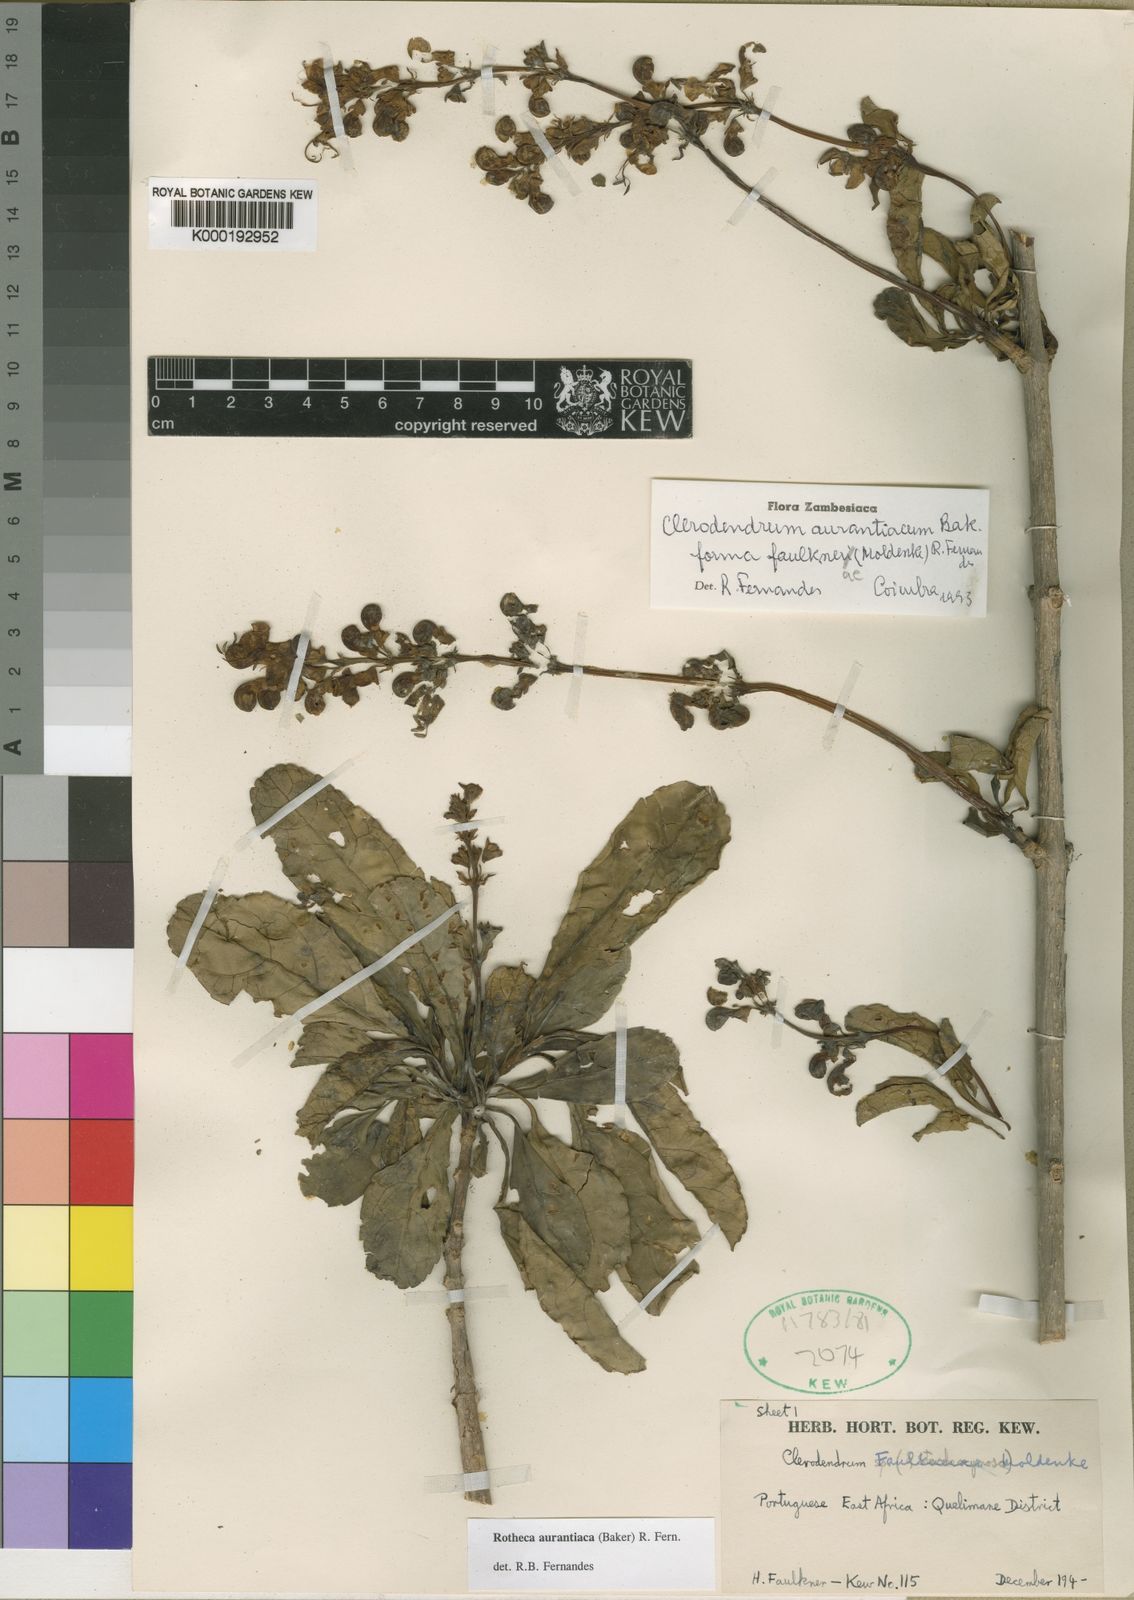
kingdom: Plantae
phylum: Tracheophyta
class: Magnoliopsida
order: Lamiales
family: Lamiaceae
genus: Rotheca
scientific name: Rotheca aurantiaca
